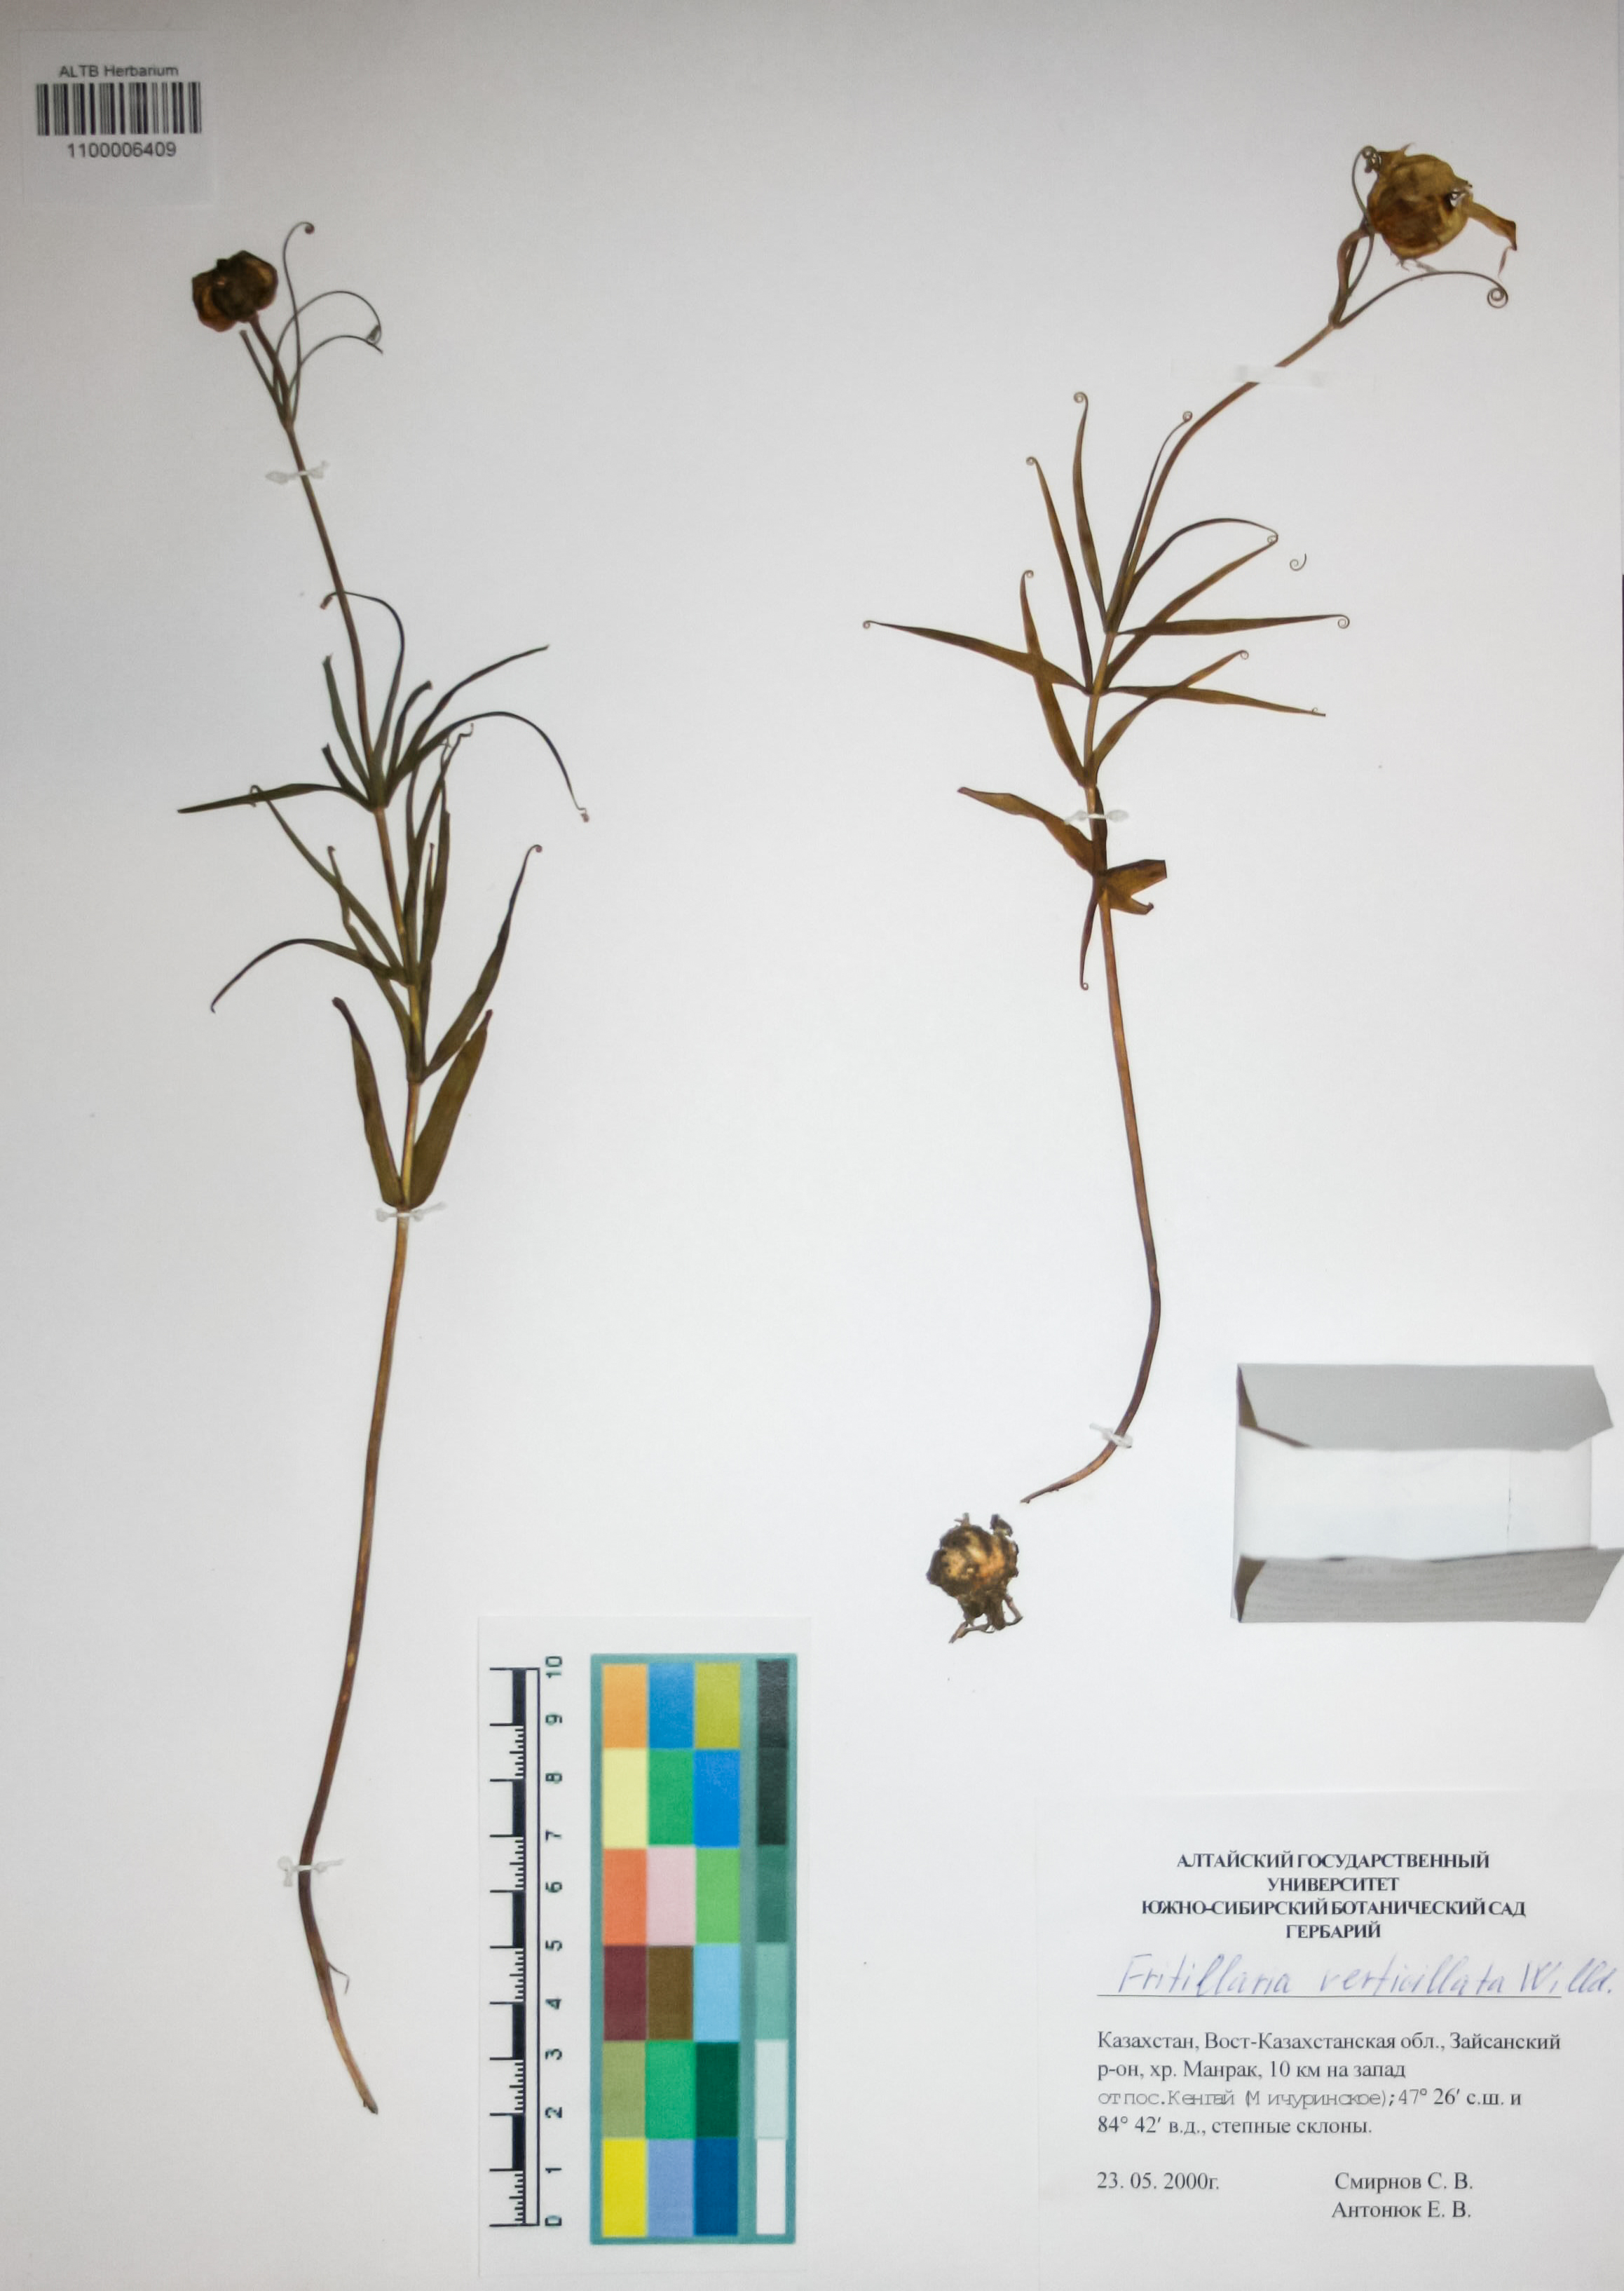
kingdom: Plantae
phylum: Tracheophyta
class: Liliopsida
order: Liliales
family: Liliaceae
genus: Fritillaria
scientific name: Fritillaria verticillata
